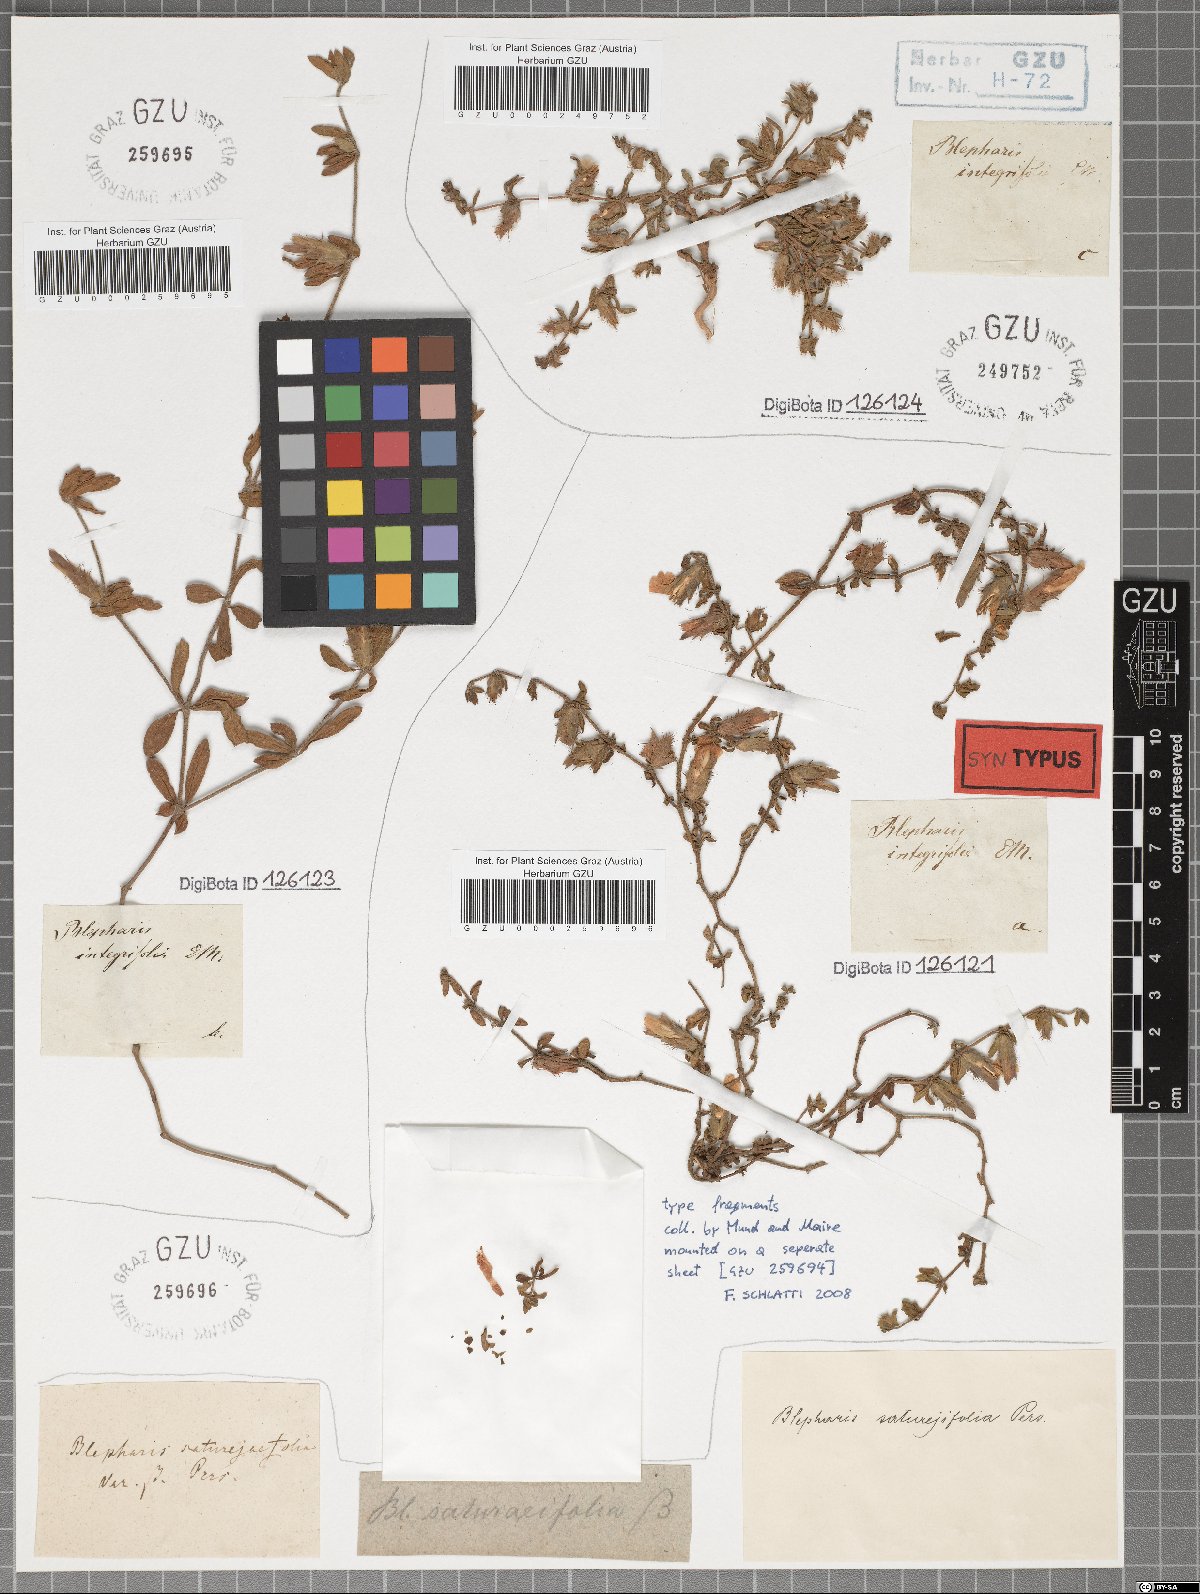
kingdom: Plantae
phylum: Tracheophyta
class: Magnoliopsida
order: Lamiales
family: Acanthaceae
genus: Blepharis
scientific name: Blepharis integrifolia
